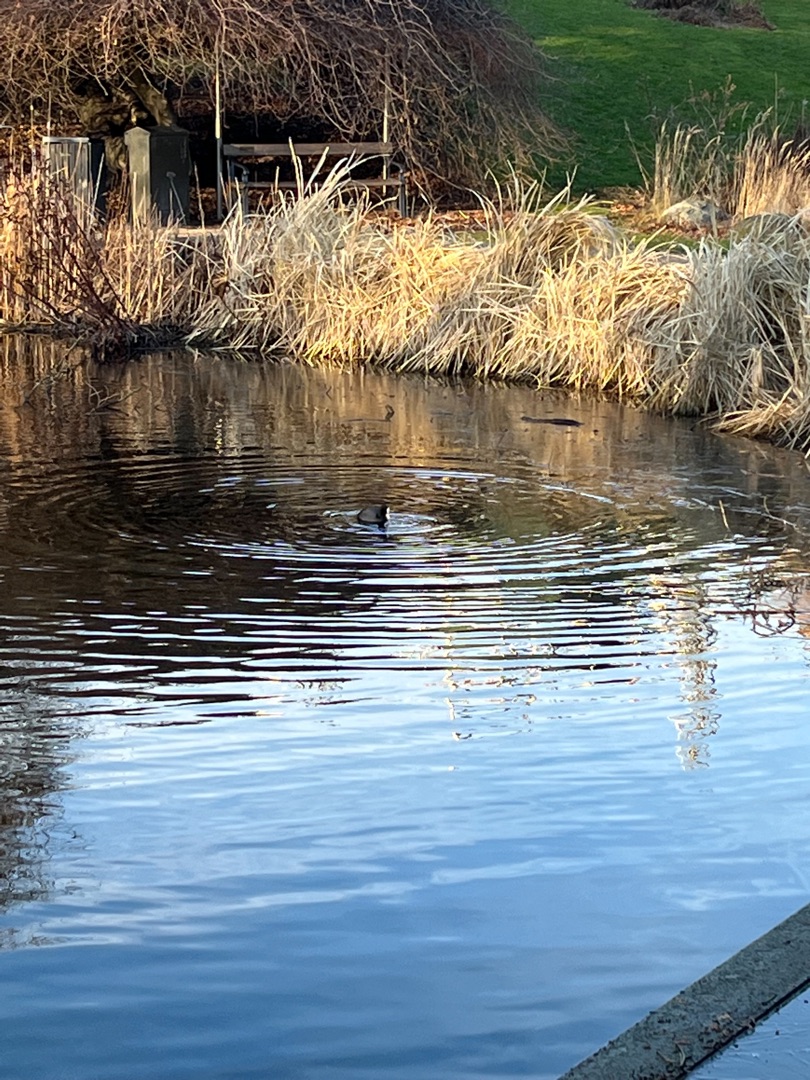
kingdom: Animalia
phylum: Chordata
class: Aves
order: Gruiformes
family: Rallidae
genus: Fulica
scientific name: Fulica atra
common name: Blishøne
